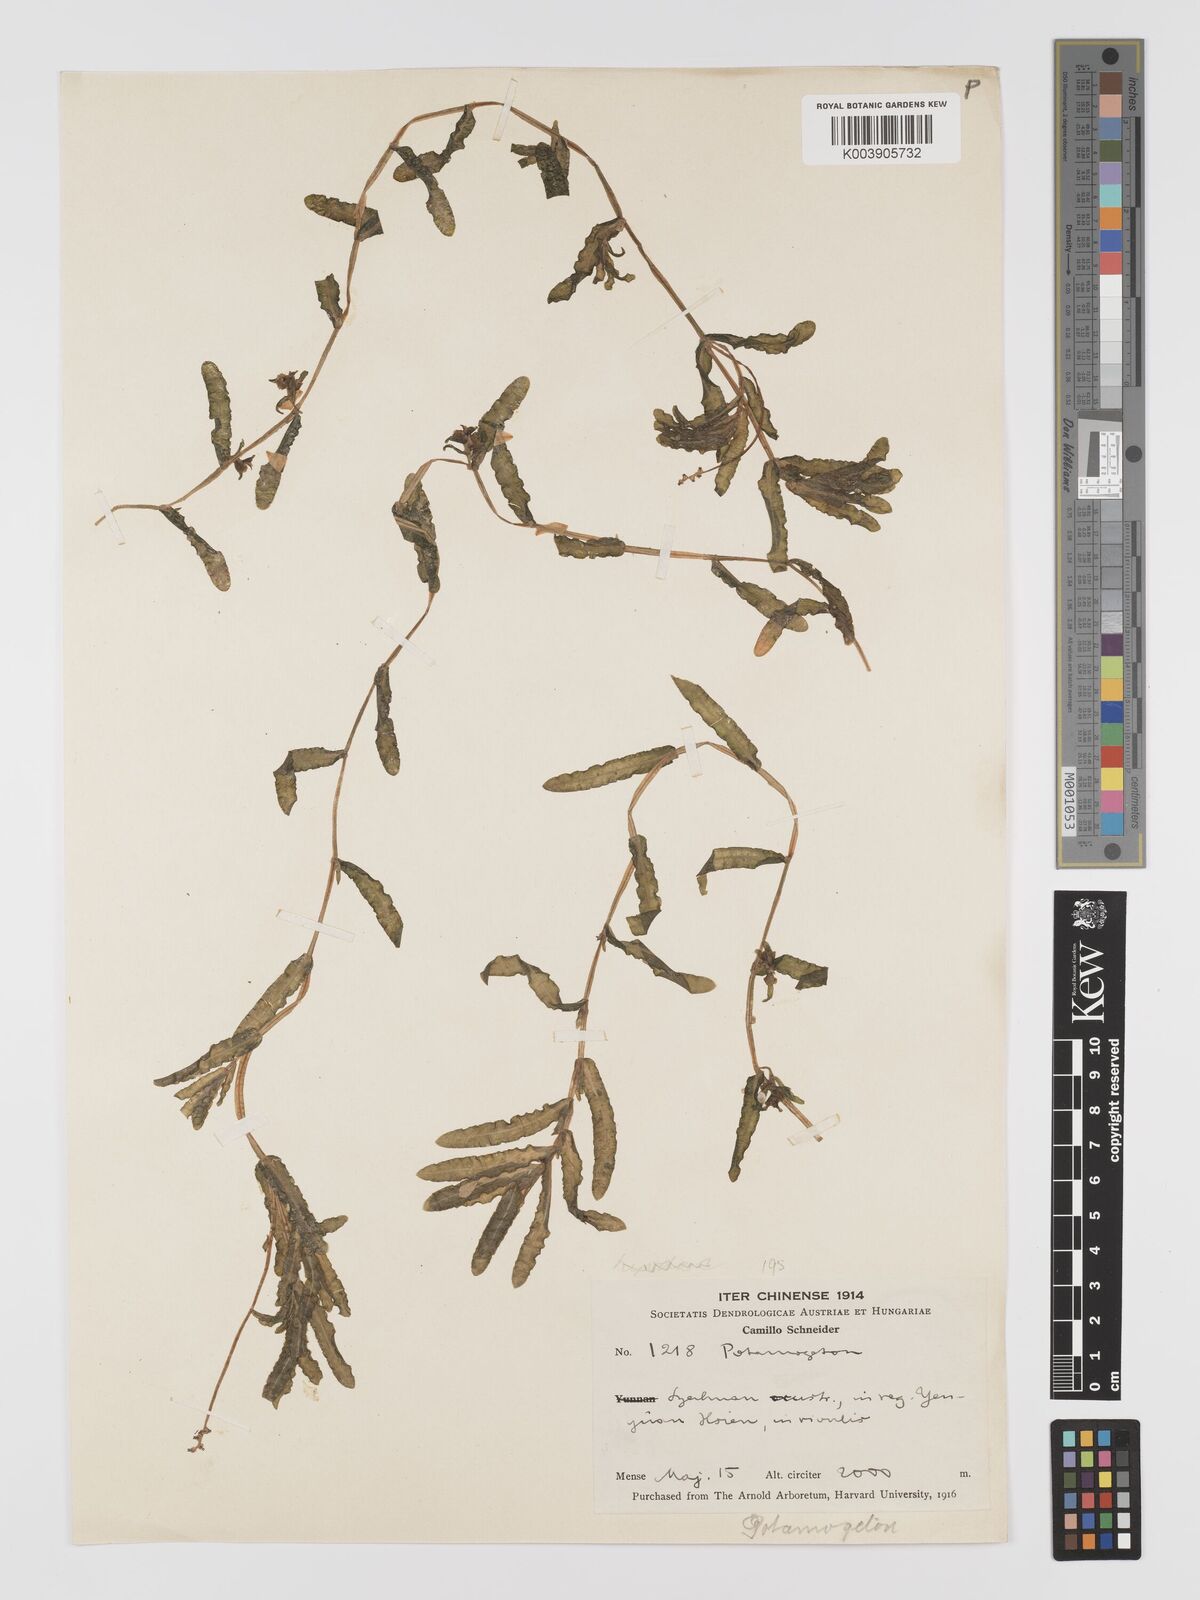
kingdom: Plantae
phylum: Tracheophyta
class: Liliopsida
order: Alismatales
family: Potamogetonaceae
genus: Potamogeton
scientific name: Potamogeton crispus
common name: Curled pondweed
